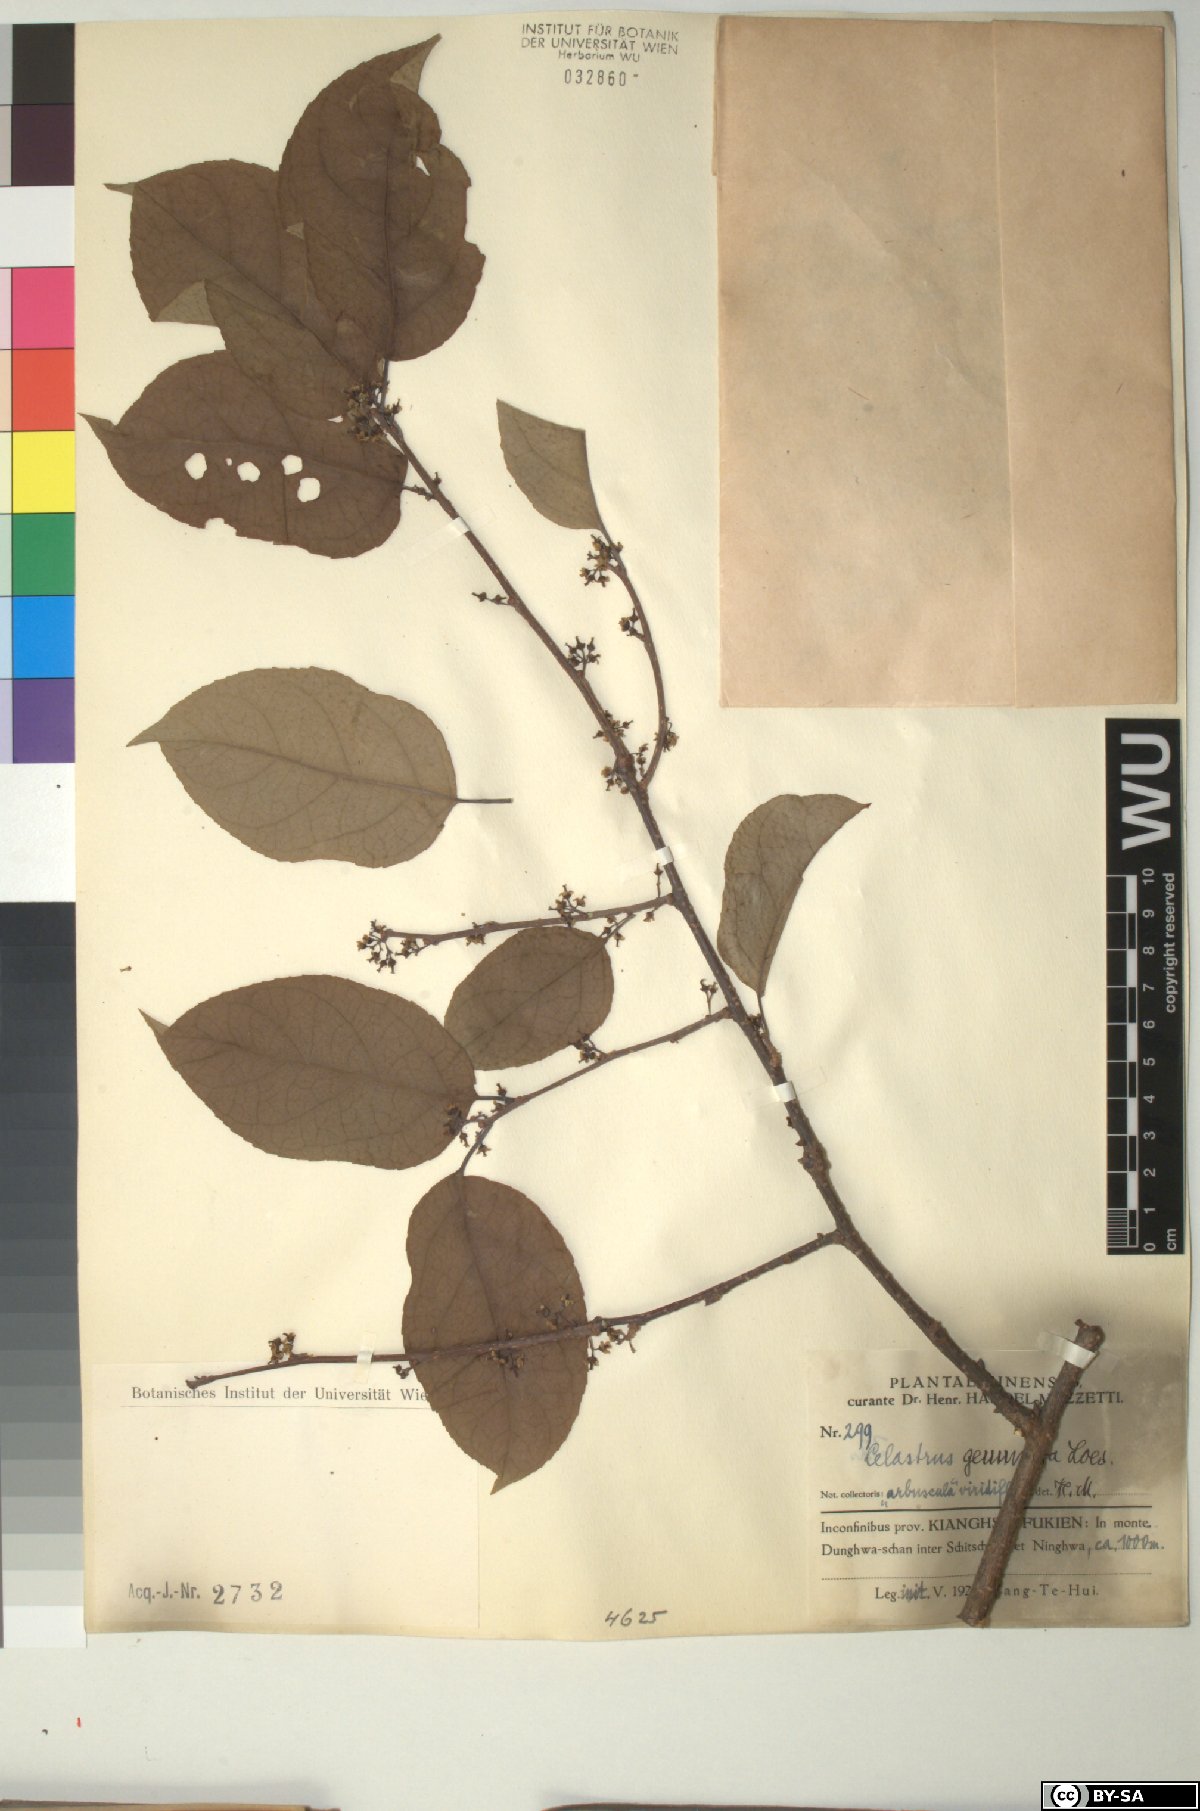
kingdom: Plantae
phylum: Tracheophyta
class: Magnoliopsida
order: Celastrales
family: Celastraceae
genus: Celastrus
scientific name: Celastrus gemmatus
